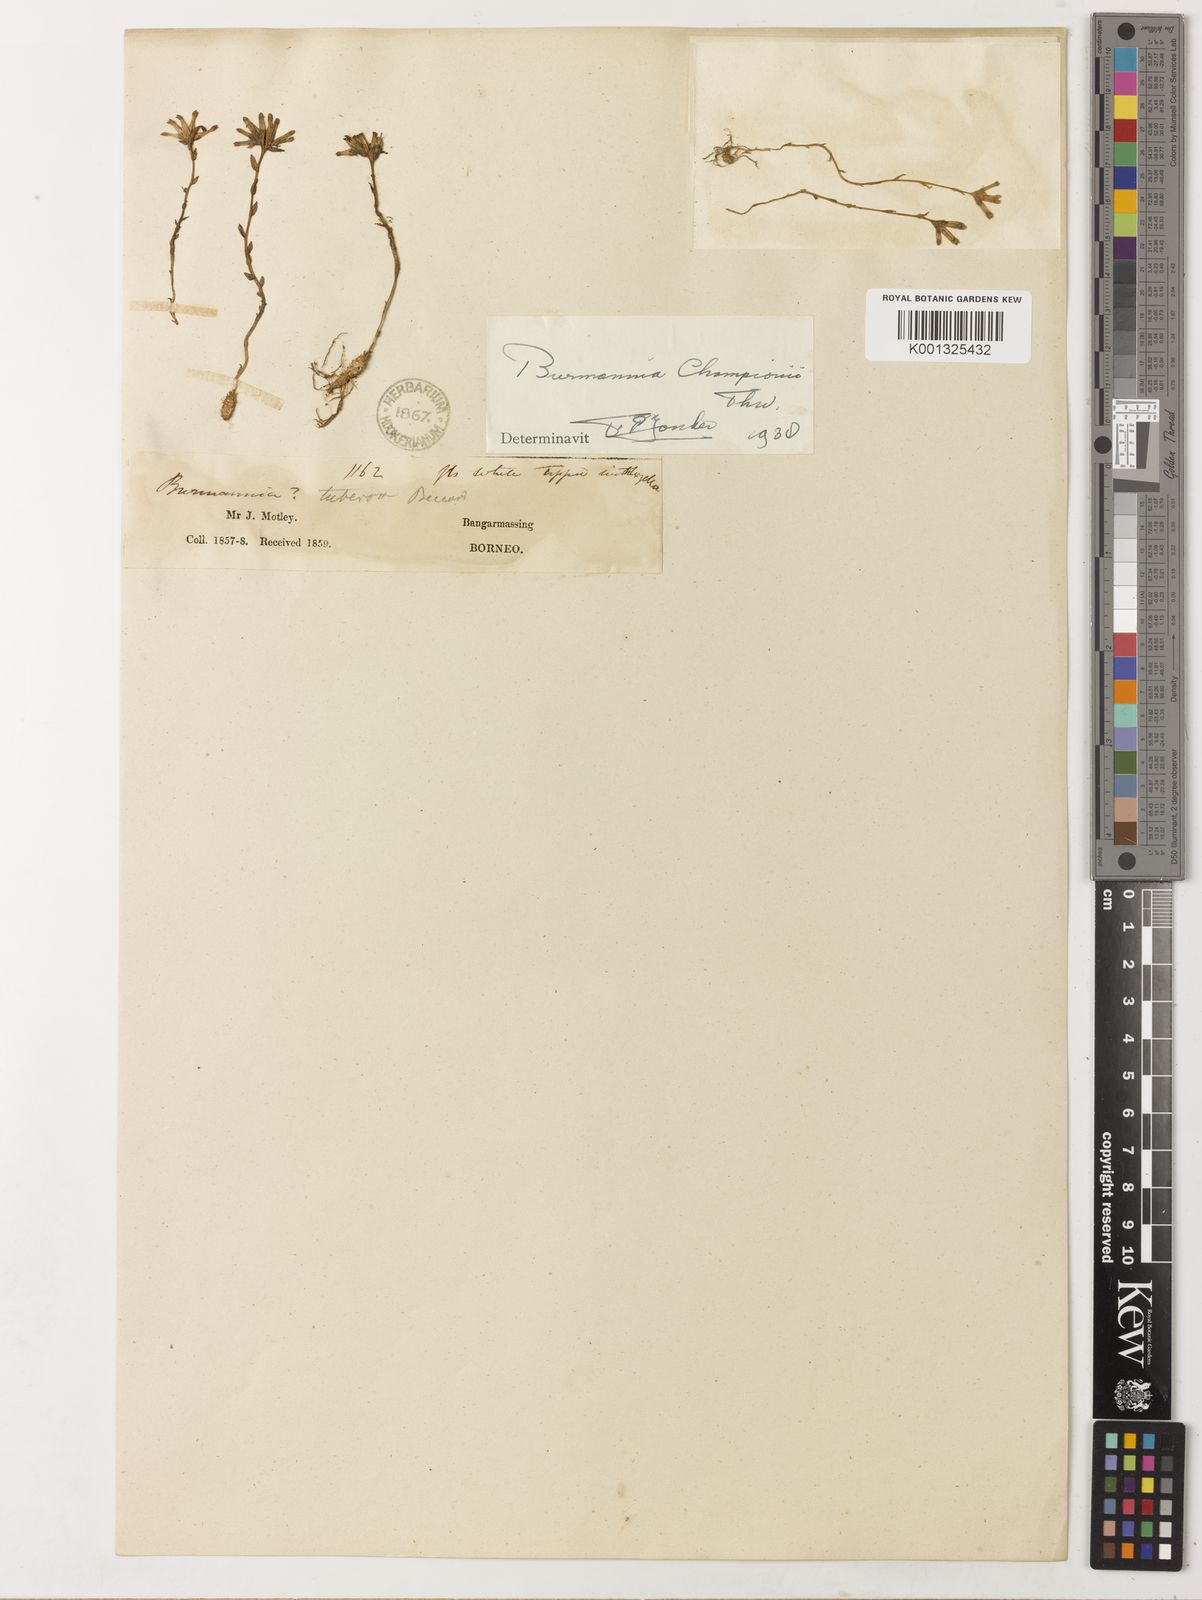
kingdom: Plantae
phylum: Tracheophyta
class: Liliopsida
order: Dioscoreales
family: Burmanniaceae
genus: Burmannia
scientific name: Burmannia championii
